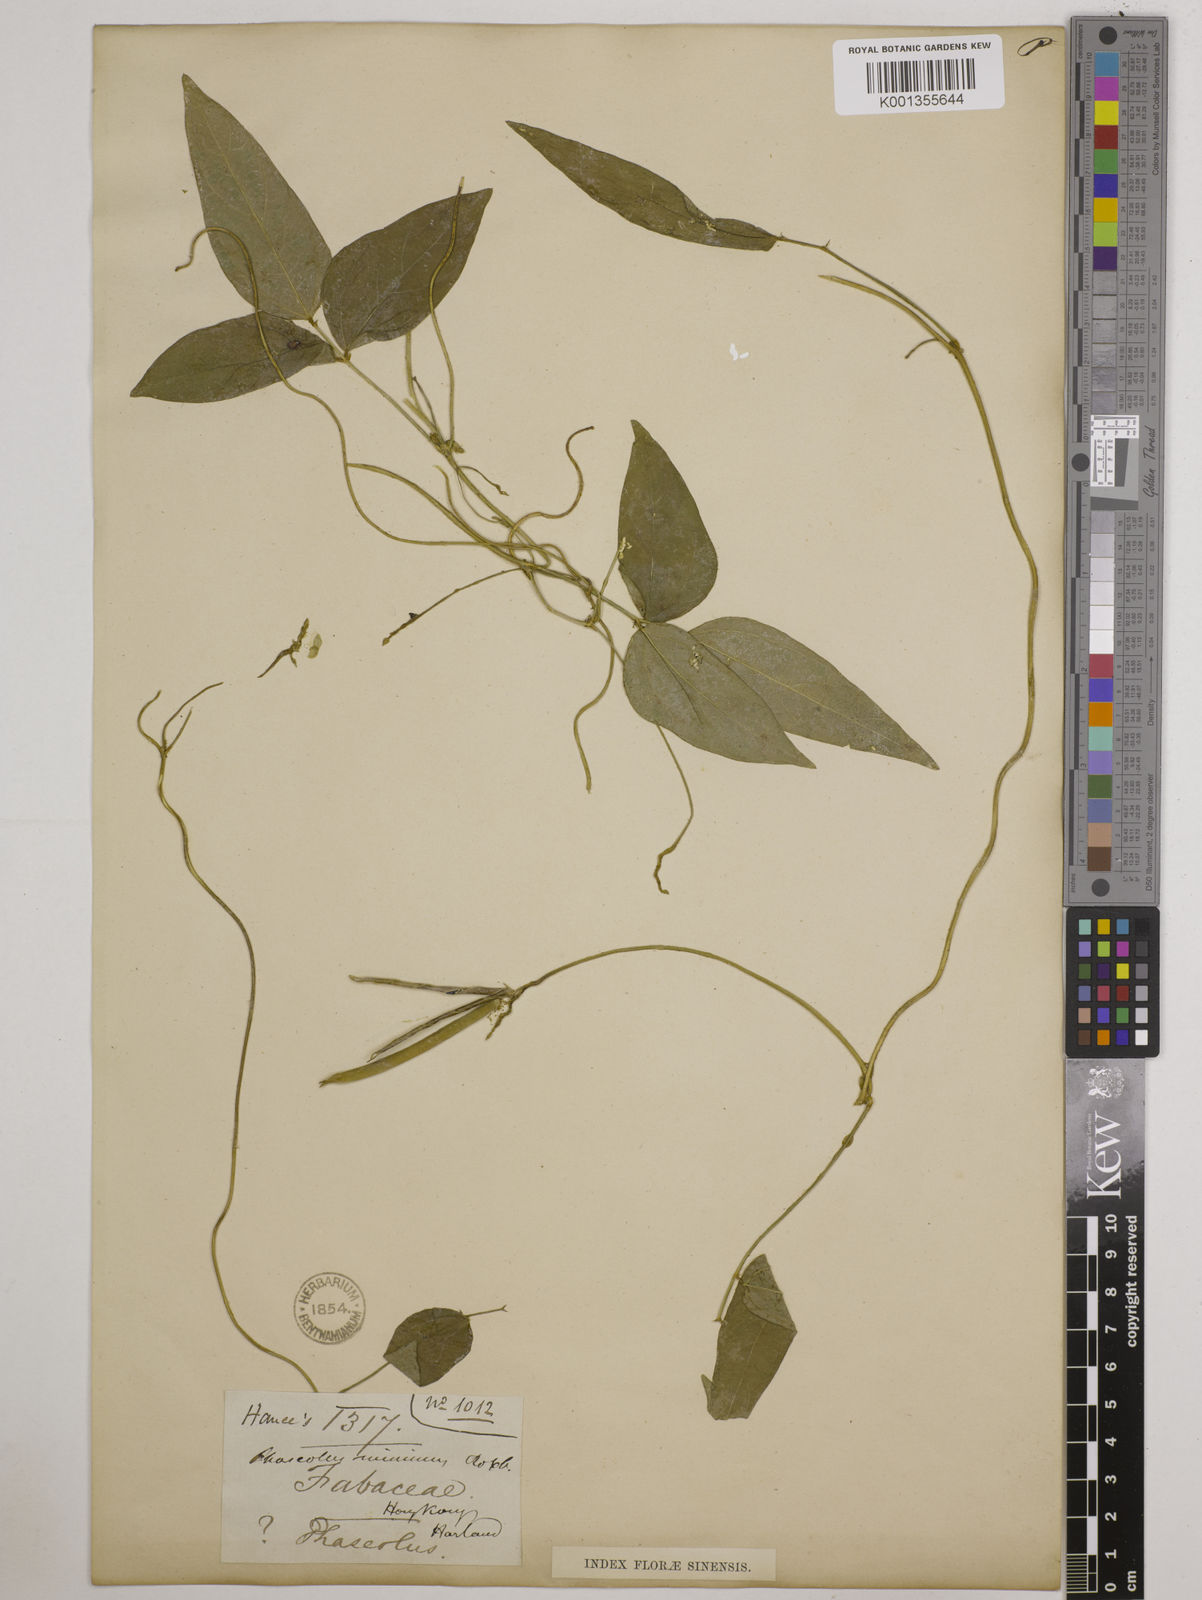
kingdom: Plantae
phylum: Tracheophyta
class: Magnoliopsida
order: Fabales
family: Fabaceae
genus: Vigna
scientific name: Vigna minima
